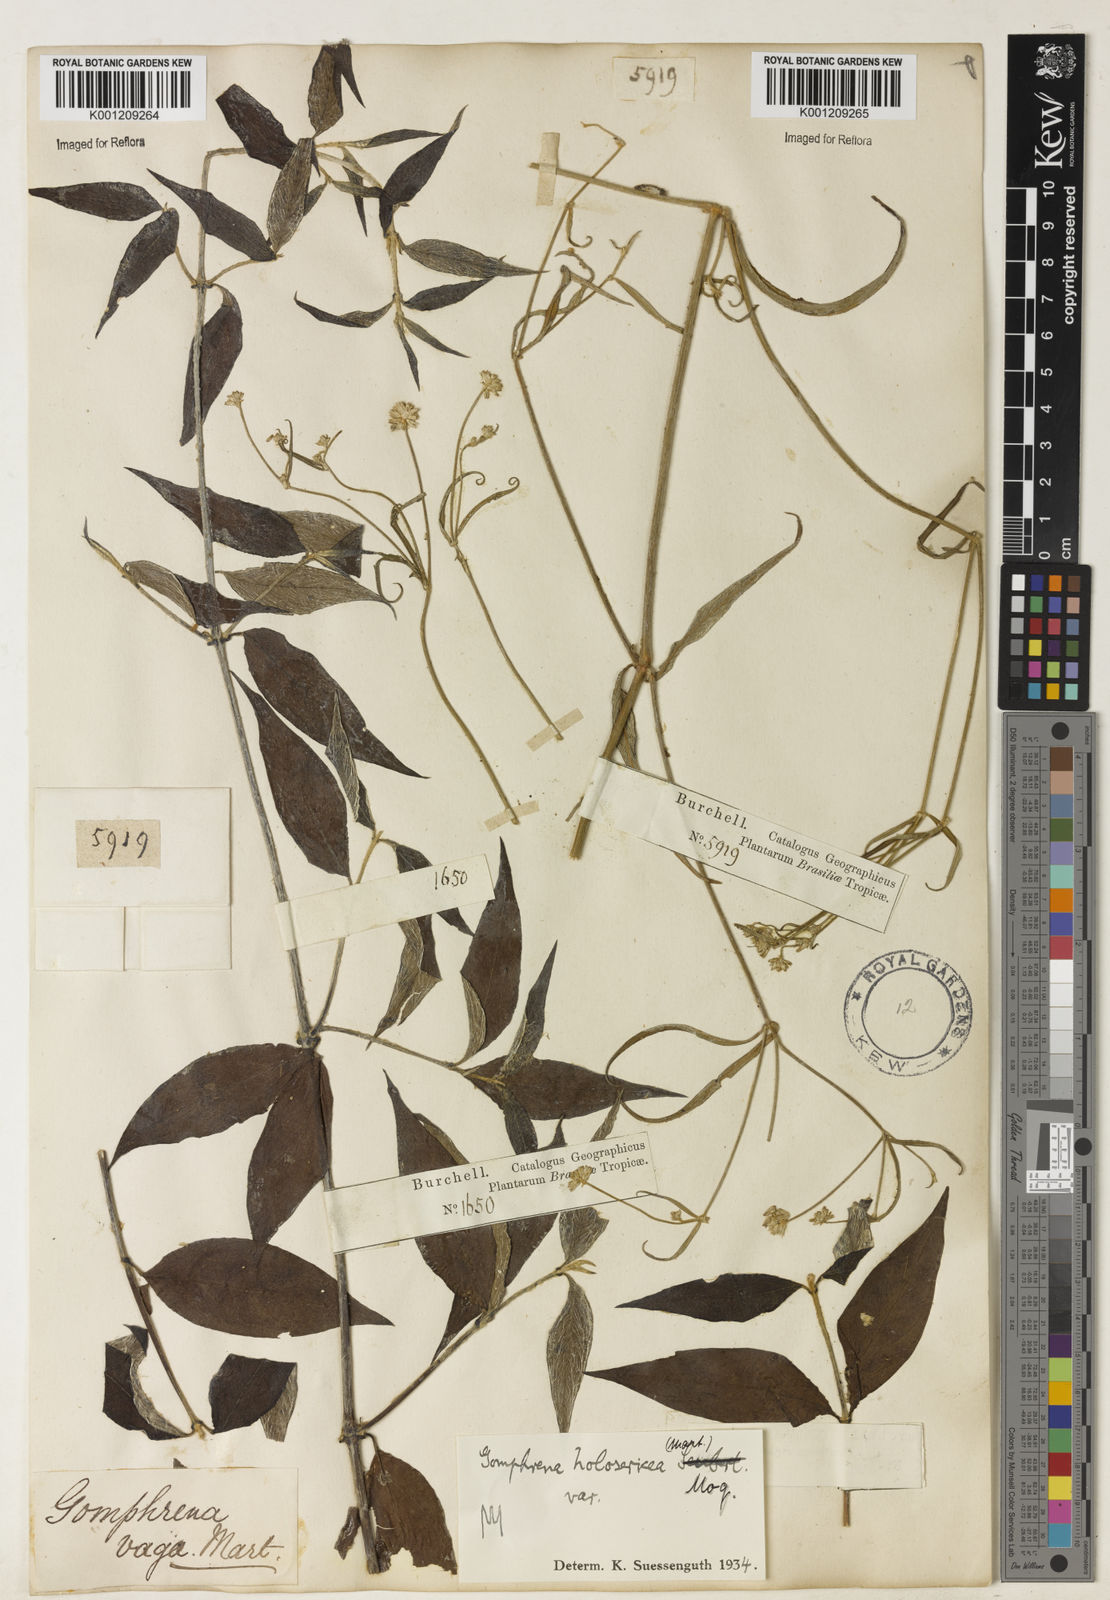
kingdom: Plantae
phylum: Tracheophyta
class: Magnoliopsida
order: Caryophyllales
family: Amaranthaceae
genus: Gomphrena
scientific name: Gomphrena vaga
